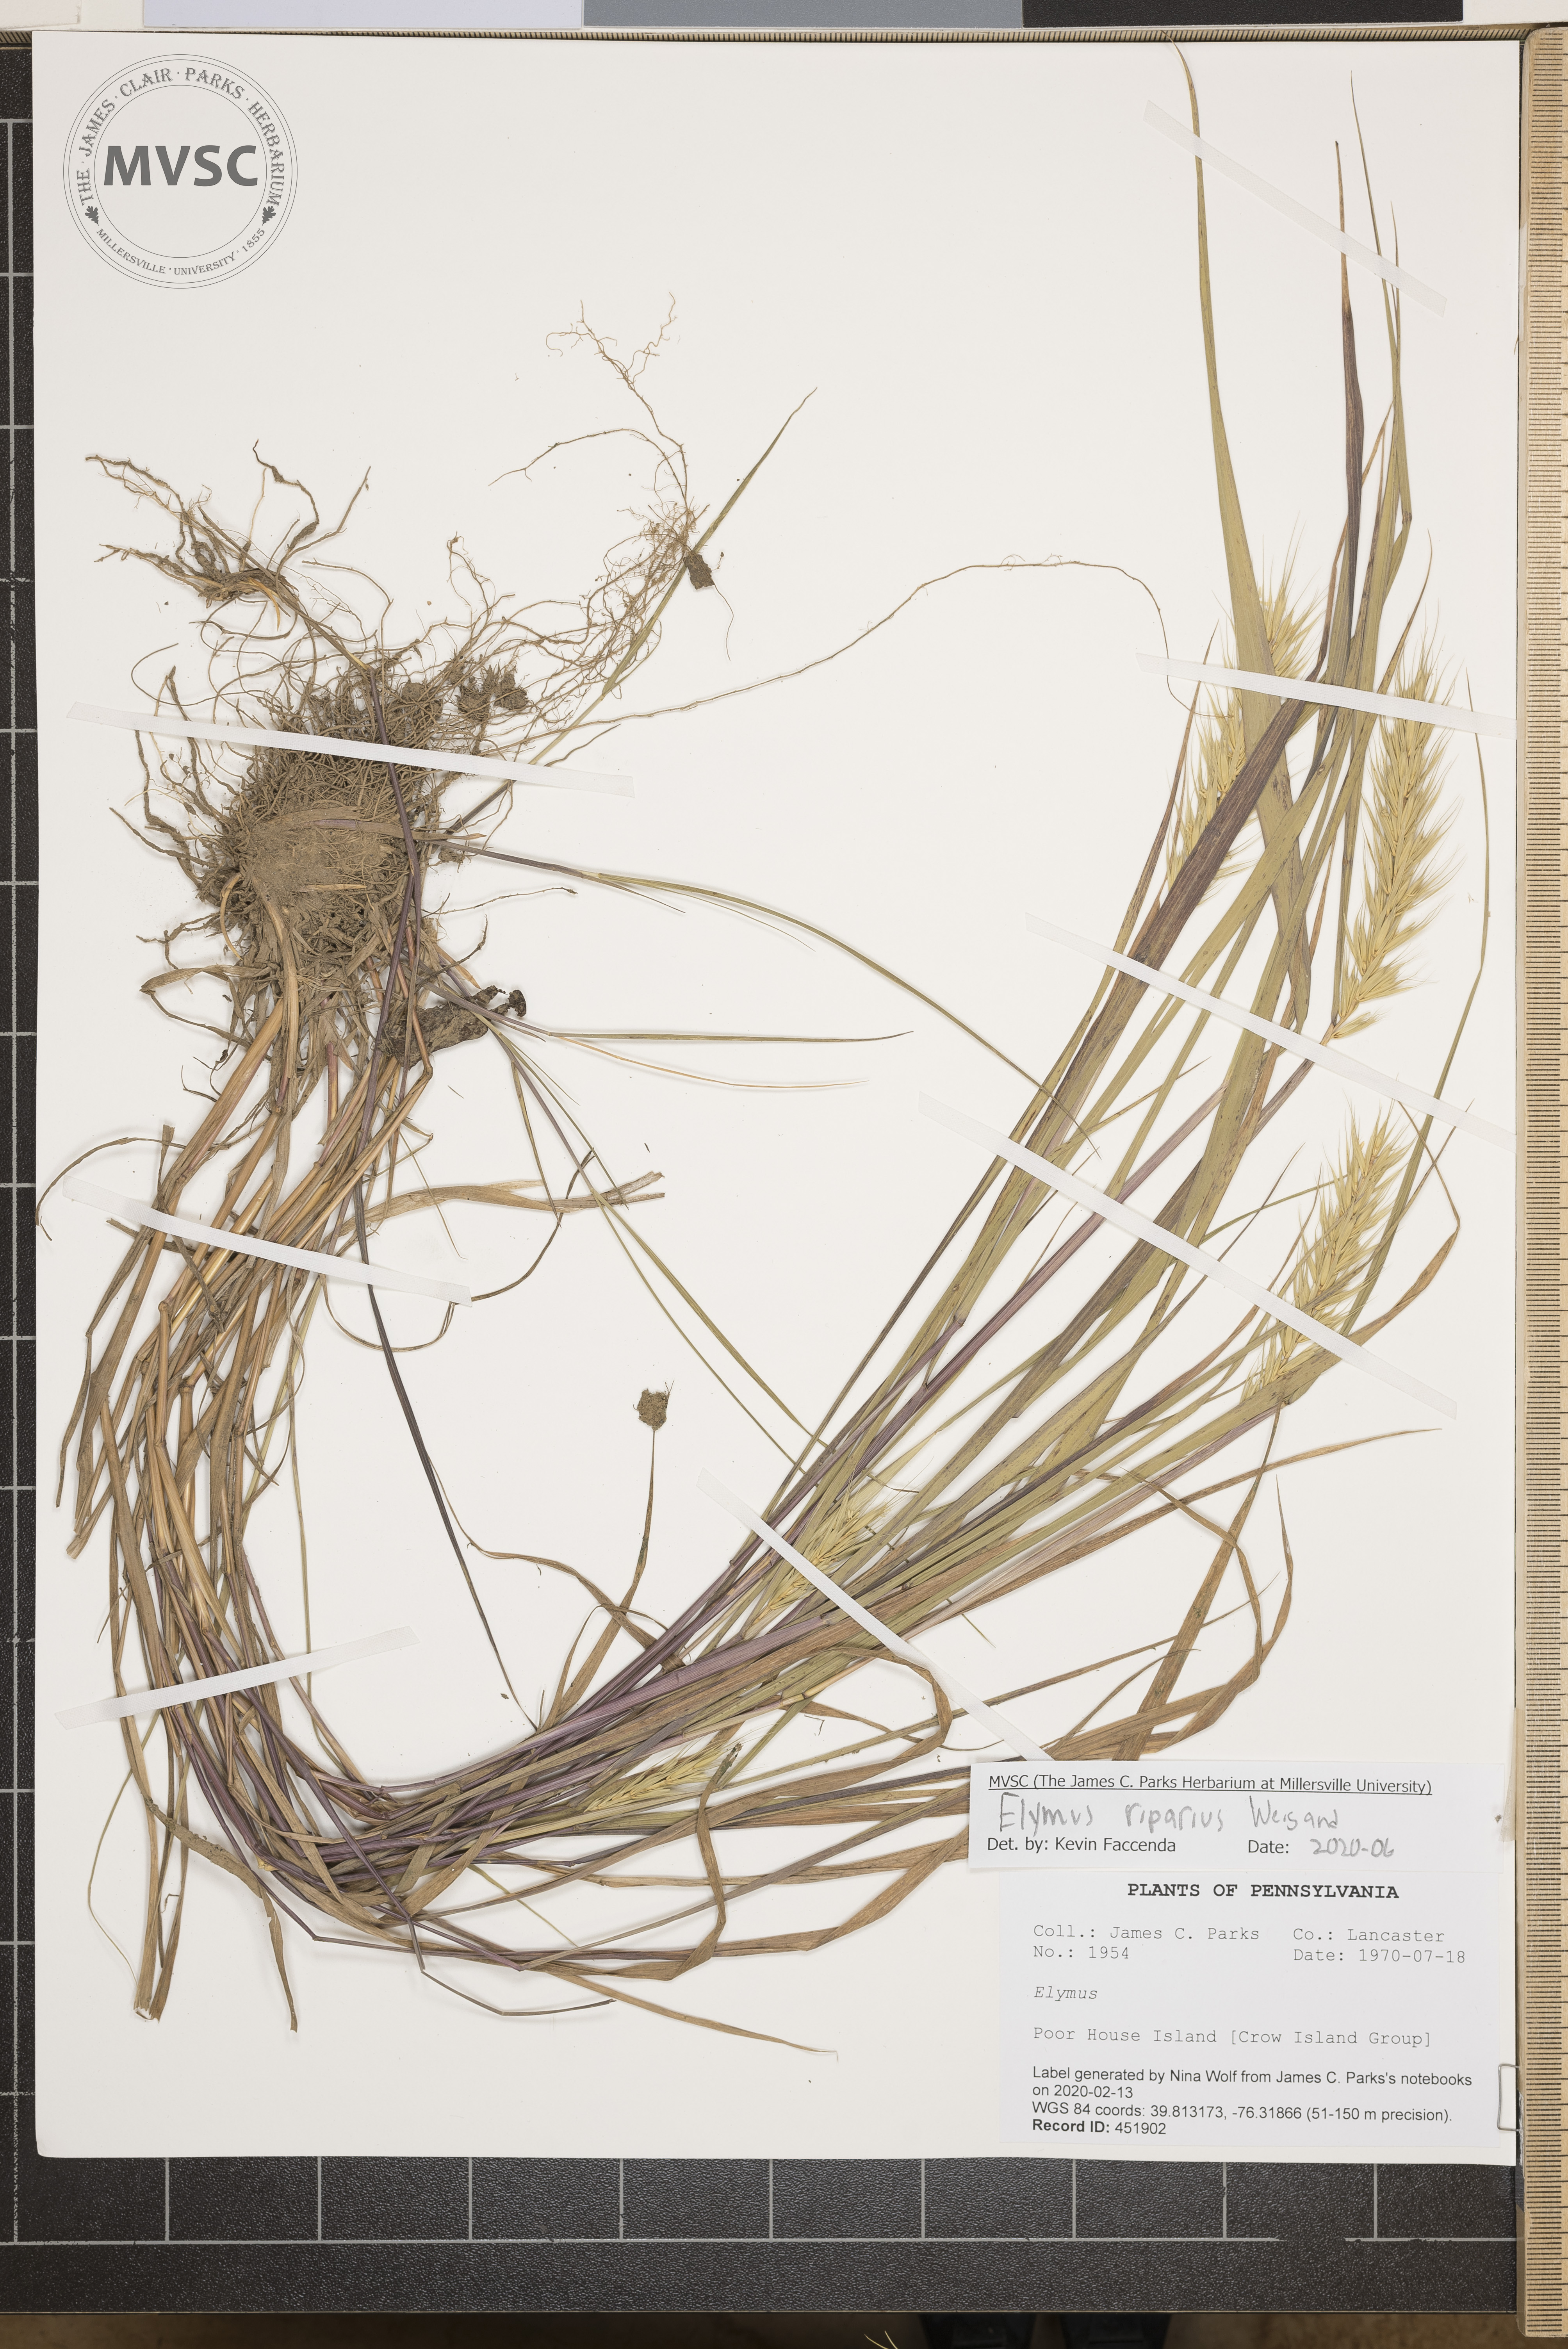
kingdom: Plantae
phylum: Tracheophyta
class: Liliopsida
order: Poales
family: Poaceae
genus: Elymus
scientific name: Elymus riparius
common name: Eastern riverbank wild rye
